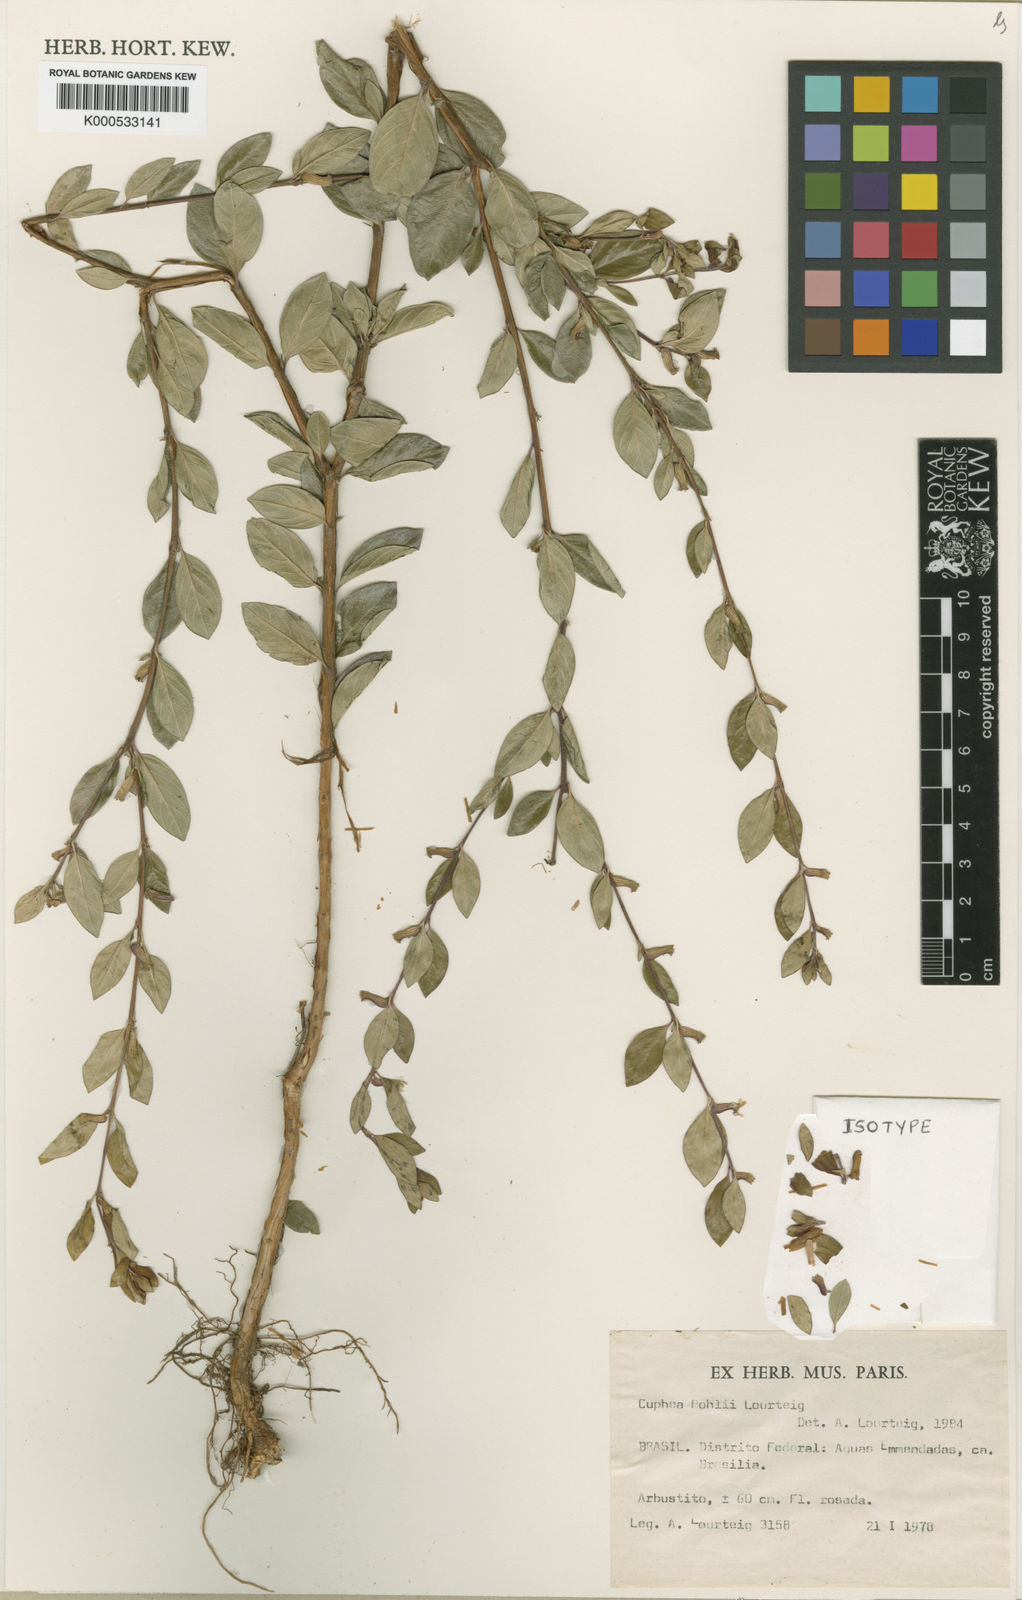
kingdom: Plantae
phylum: Tracheophyta
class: Magnoliopsida
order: Myrtales
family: Lythraceae
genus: Cuphea
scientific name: Cuphea pohlii
